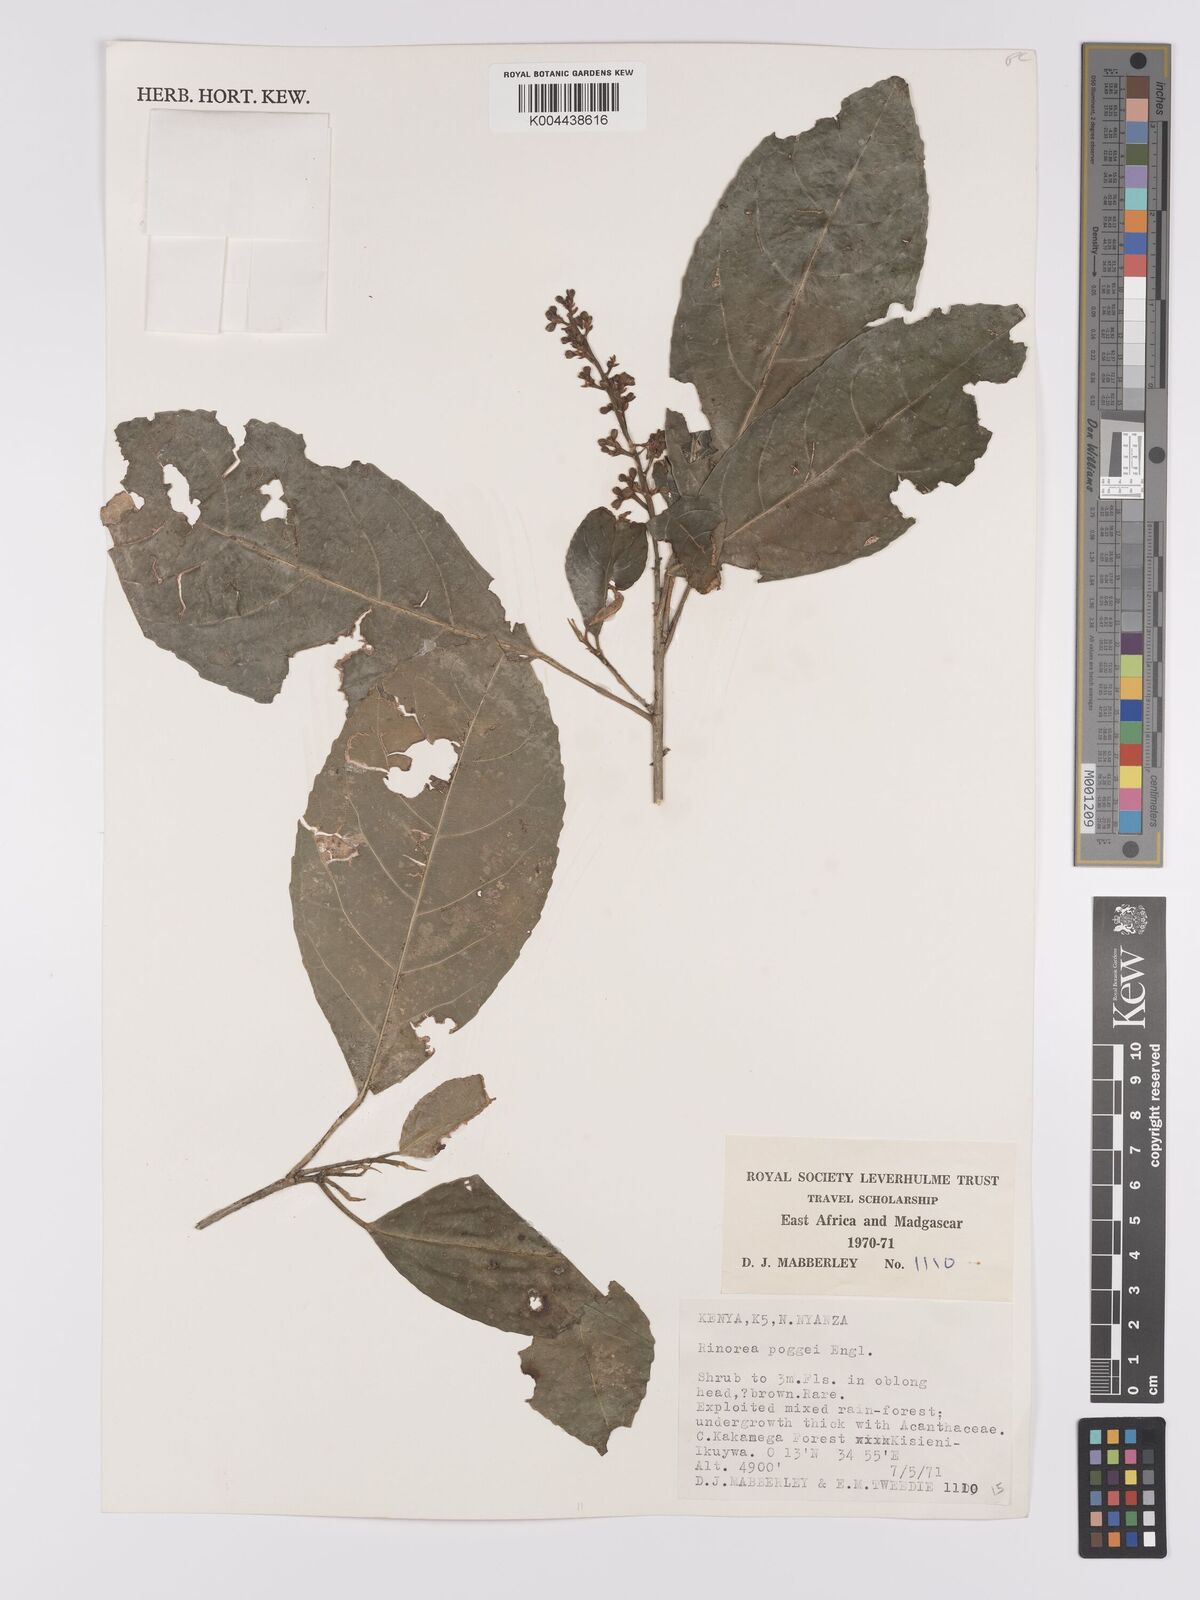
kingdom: Plantae
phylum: Tracheophyta
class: Magnoliopsida
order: Malpighiales
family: Violaceae
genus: Rinorea
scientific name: Rinorea brachypetala
